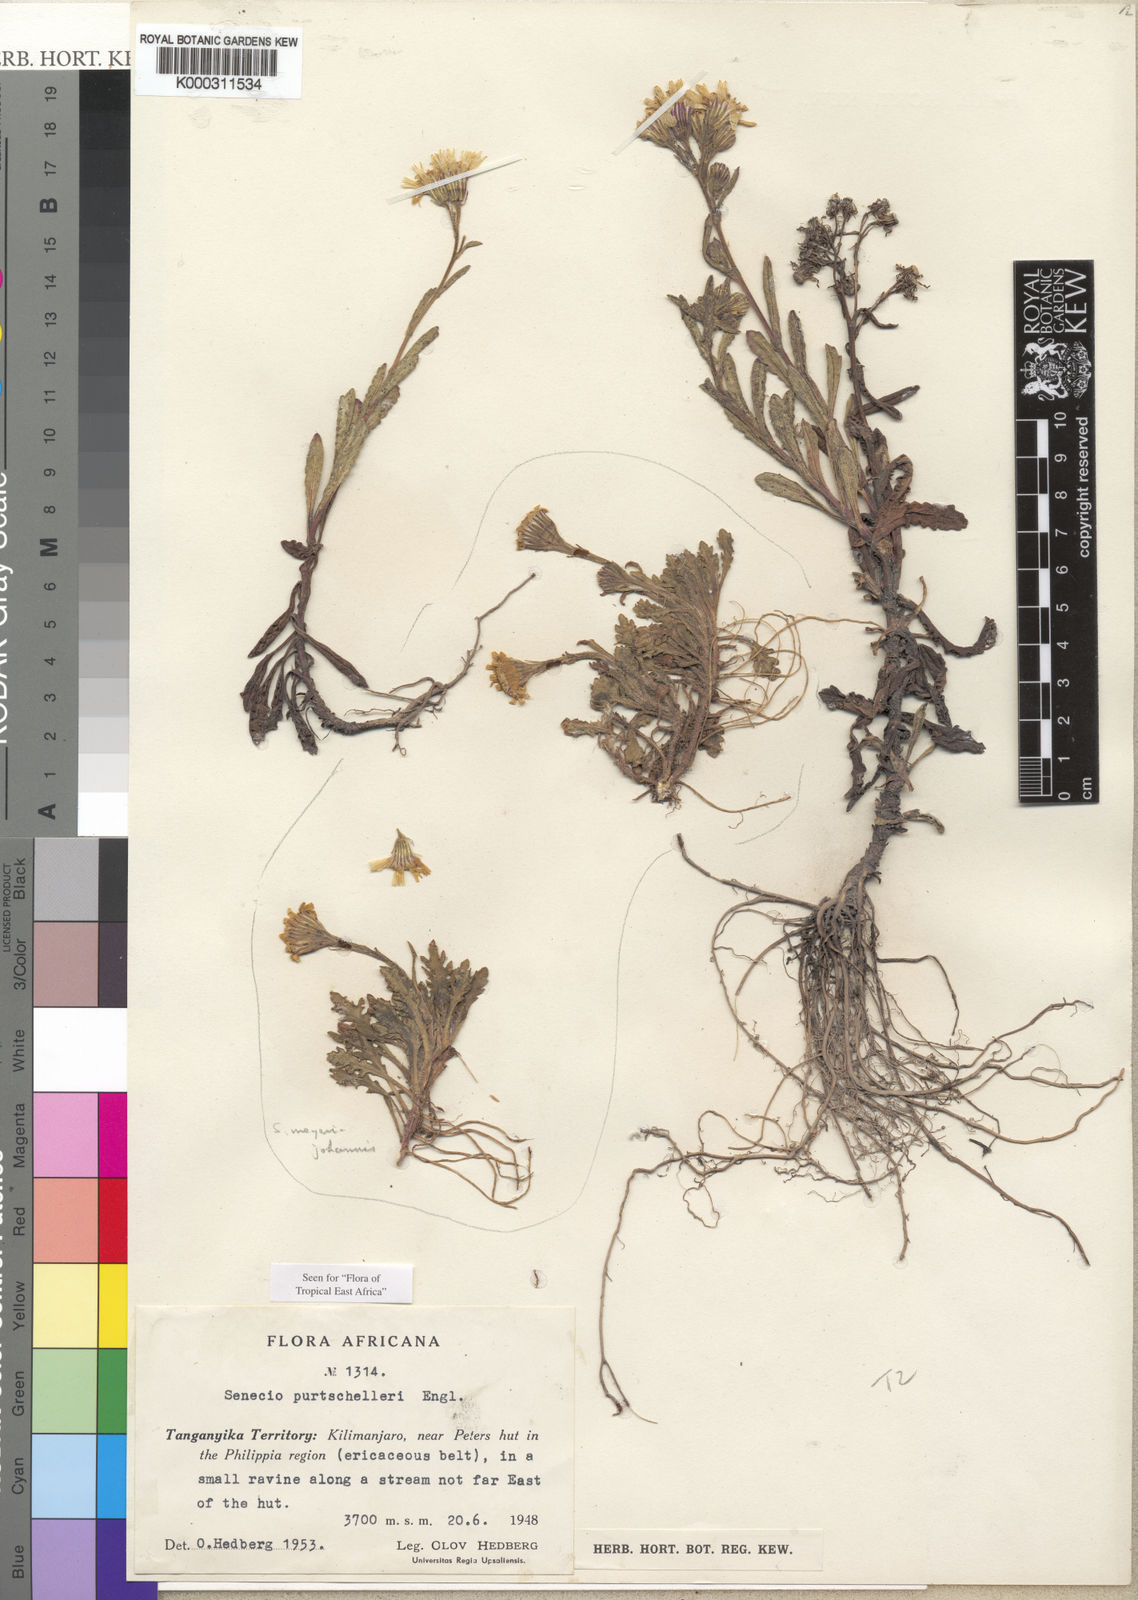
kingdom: Plantae
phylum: Tracheophyta
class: Magnoliopsida
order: Asterales
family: Asteraceae
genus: Senecio
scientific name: Senecio purtschelleri
